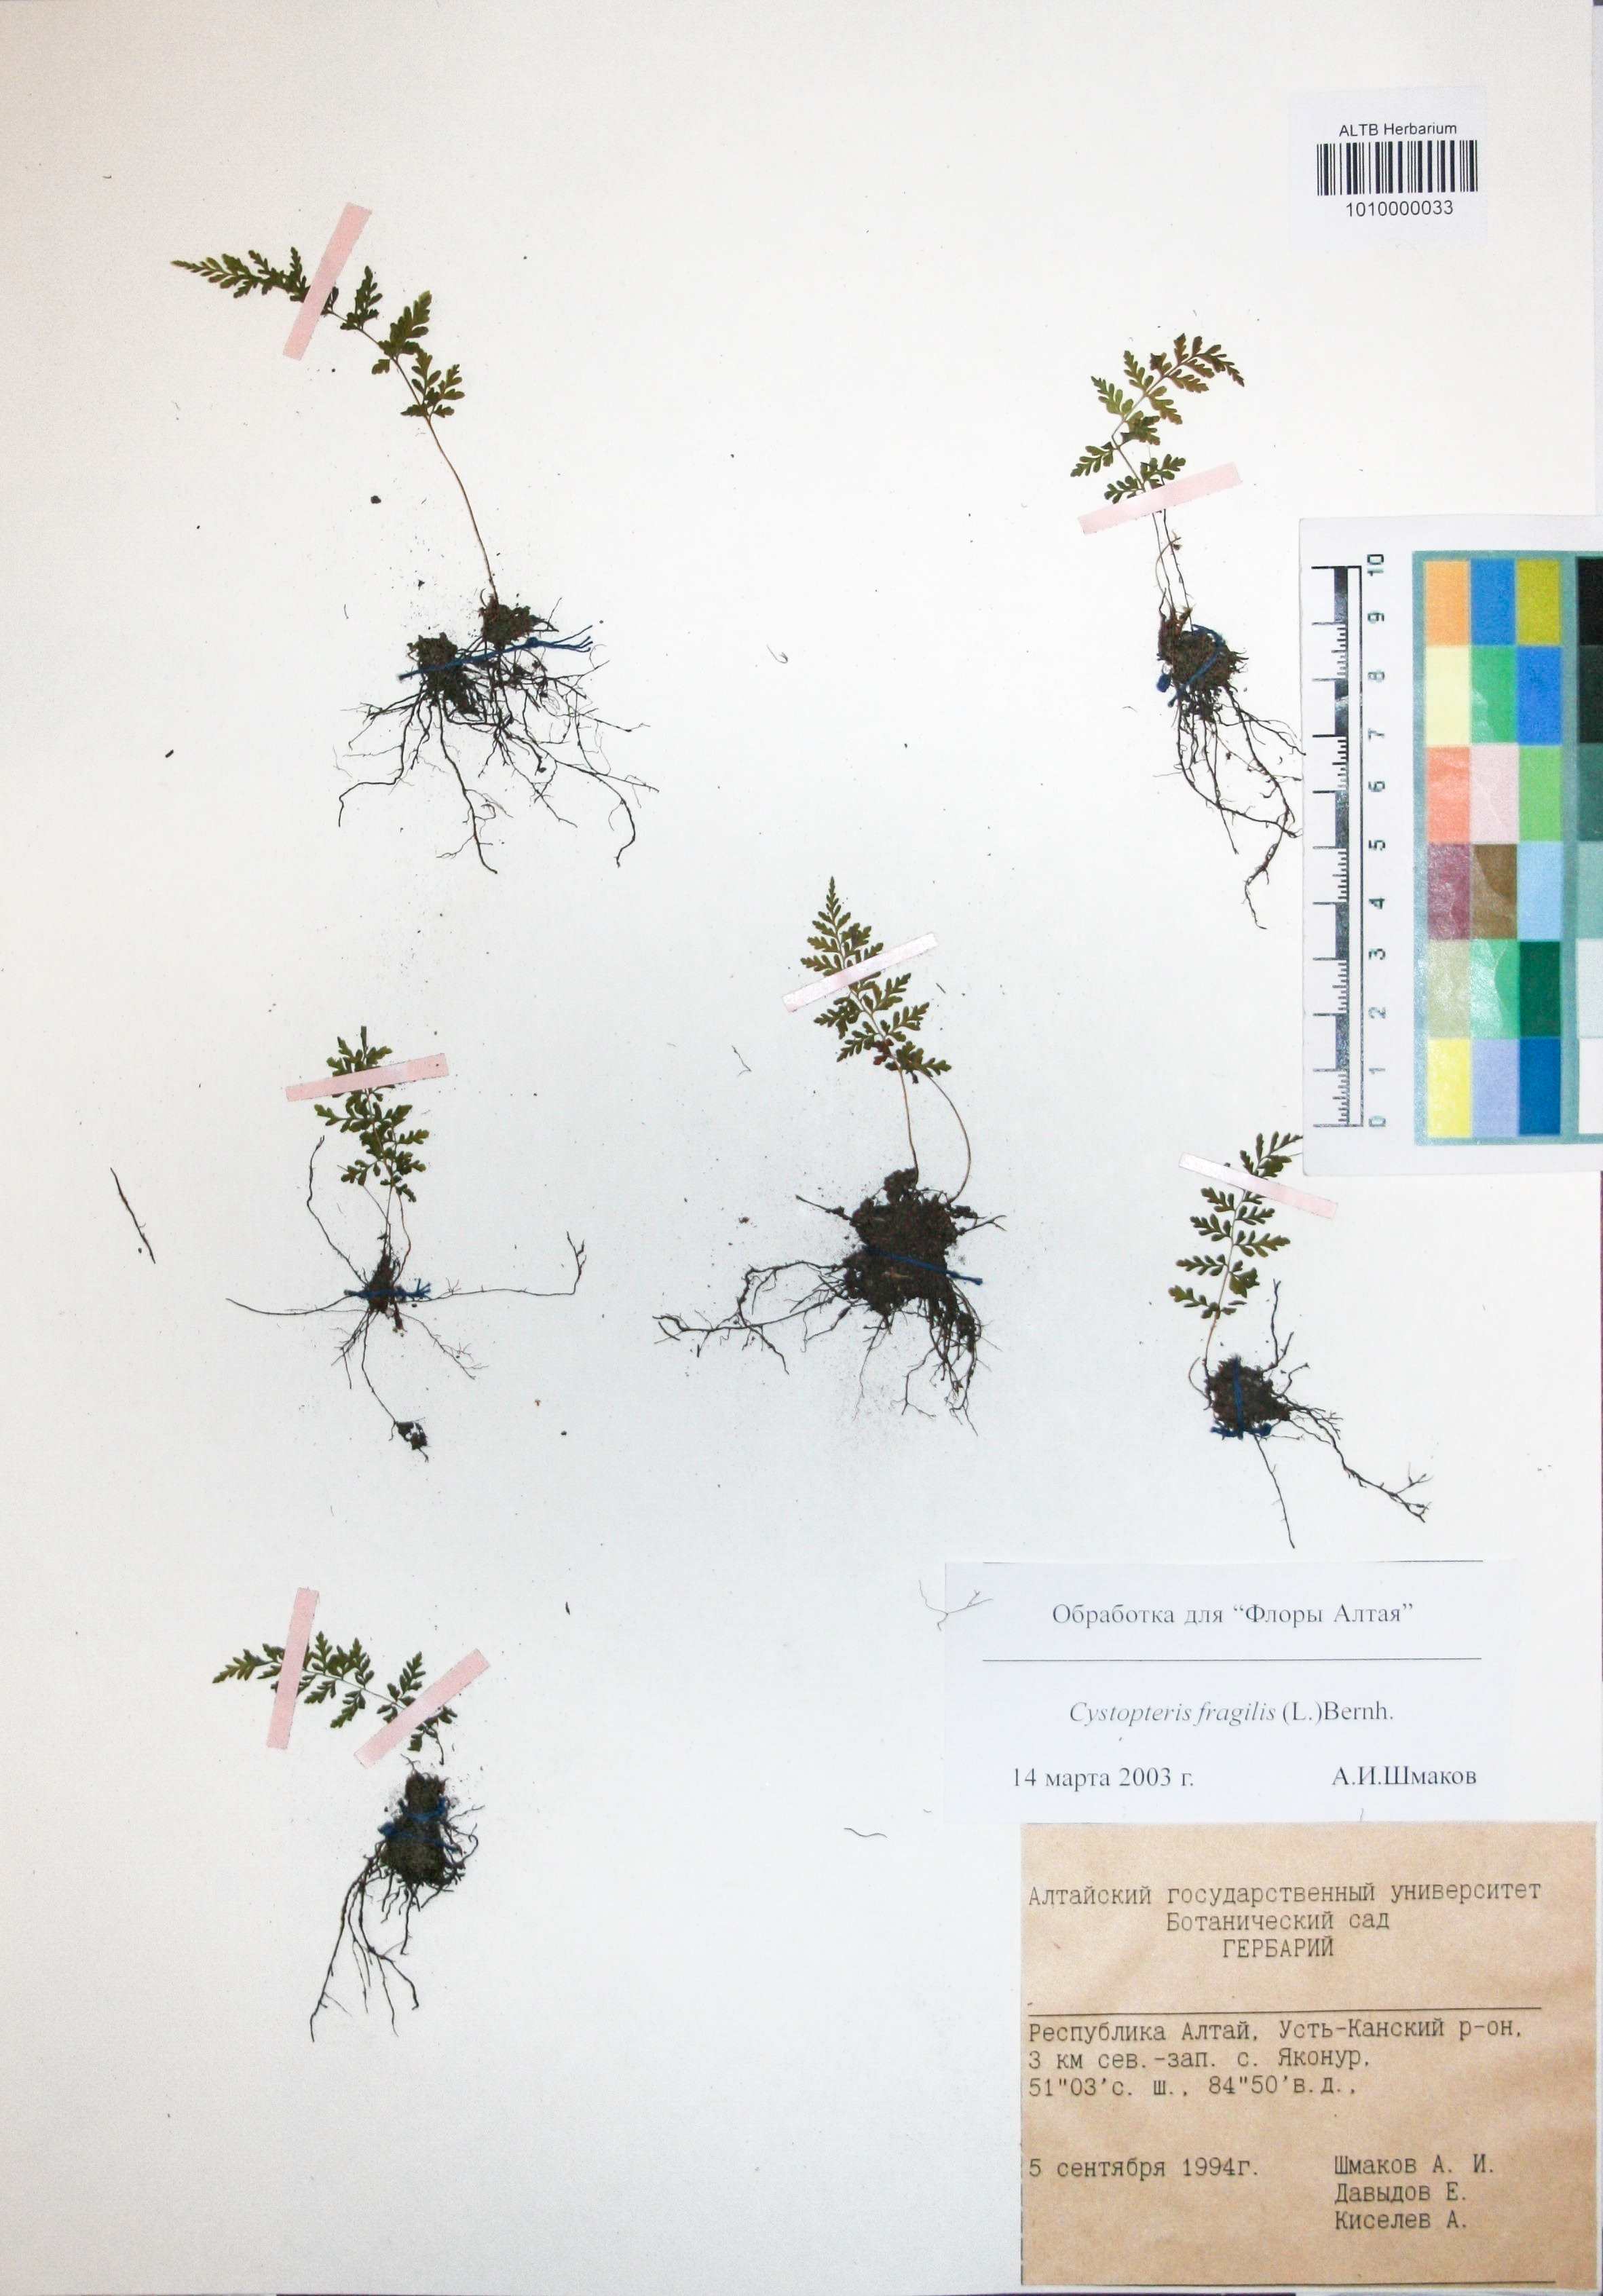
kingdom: Plantae
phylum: Tracheophyta
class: Polypodiopsida
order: Polypodiales
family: Cystopteridaceae
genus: Cystopteris
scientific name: Cystopteris fragilis
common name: Brittle bladder fern
